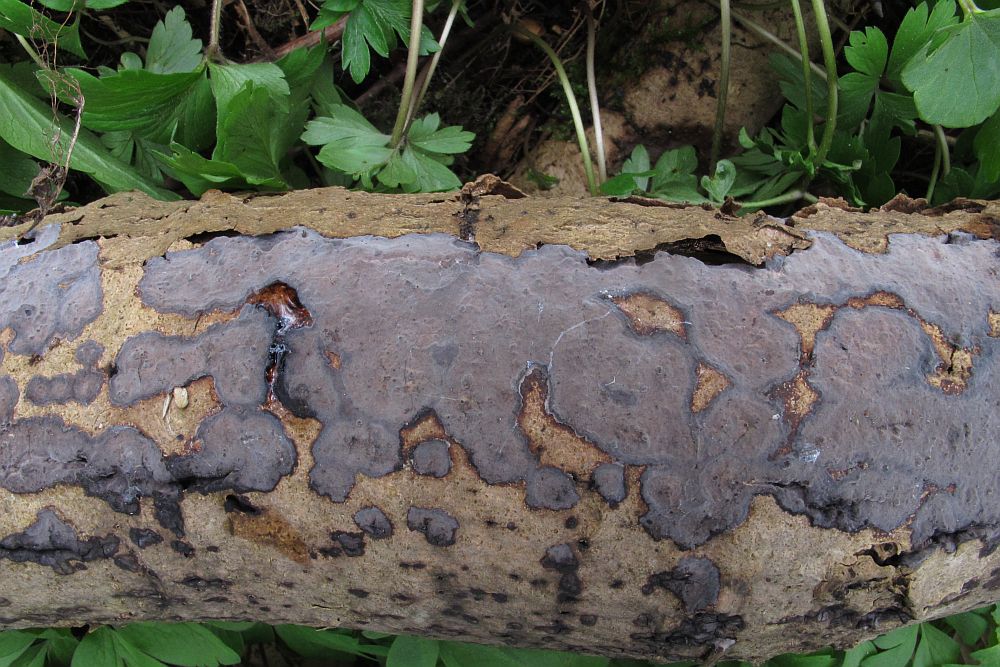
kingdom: Fungi
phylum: Basidiomycota
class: Agaricomycetes
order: Russulales
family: Peniophoraceae
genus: Peniophora
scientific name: Peniophora limitata
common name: mørkrandet voksskind
